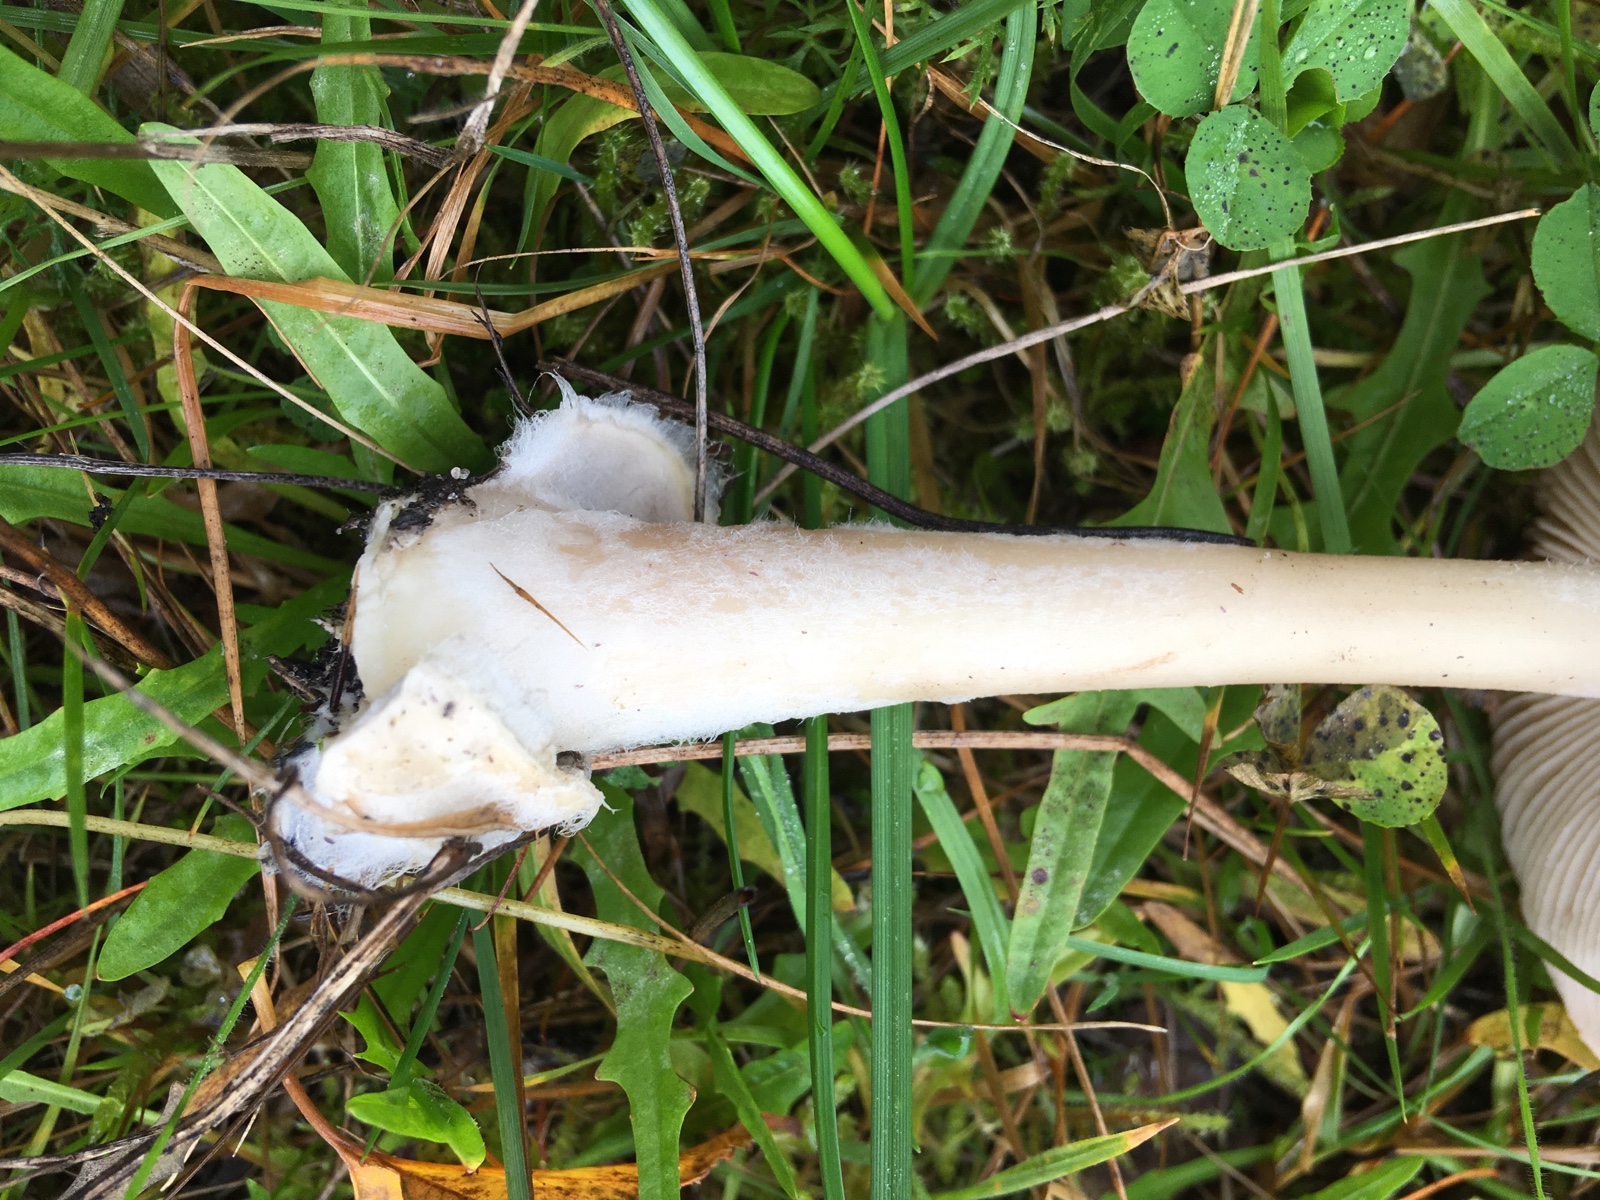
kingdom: Fungi
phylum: Basidiomycota
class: Agaricomycetes
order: Agaricales
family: Pluteaceae
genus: Volvopluteus
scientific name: Volvopluteus gloiocephalus
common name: høj posesvamp
